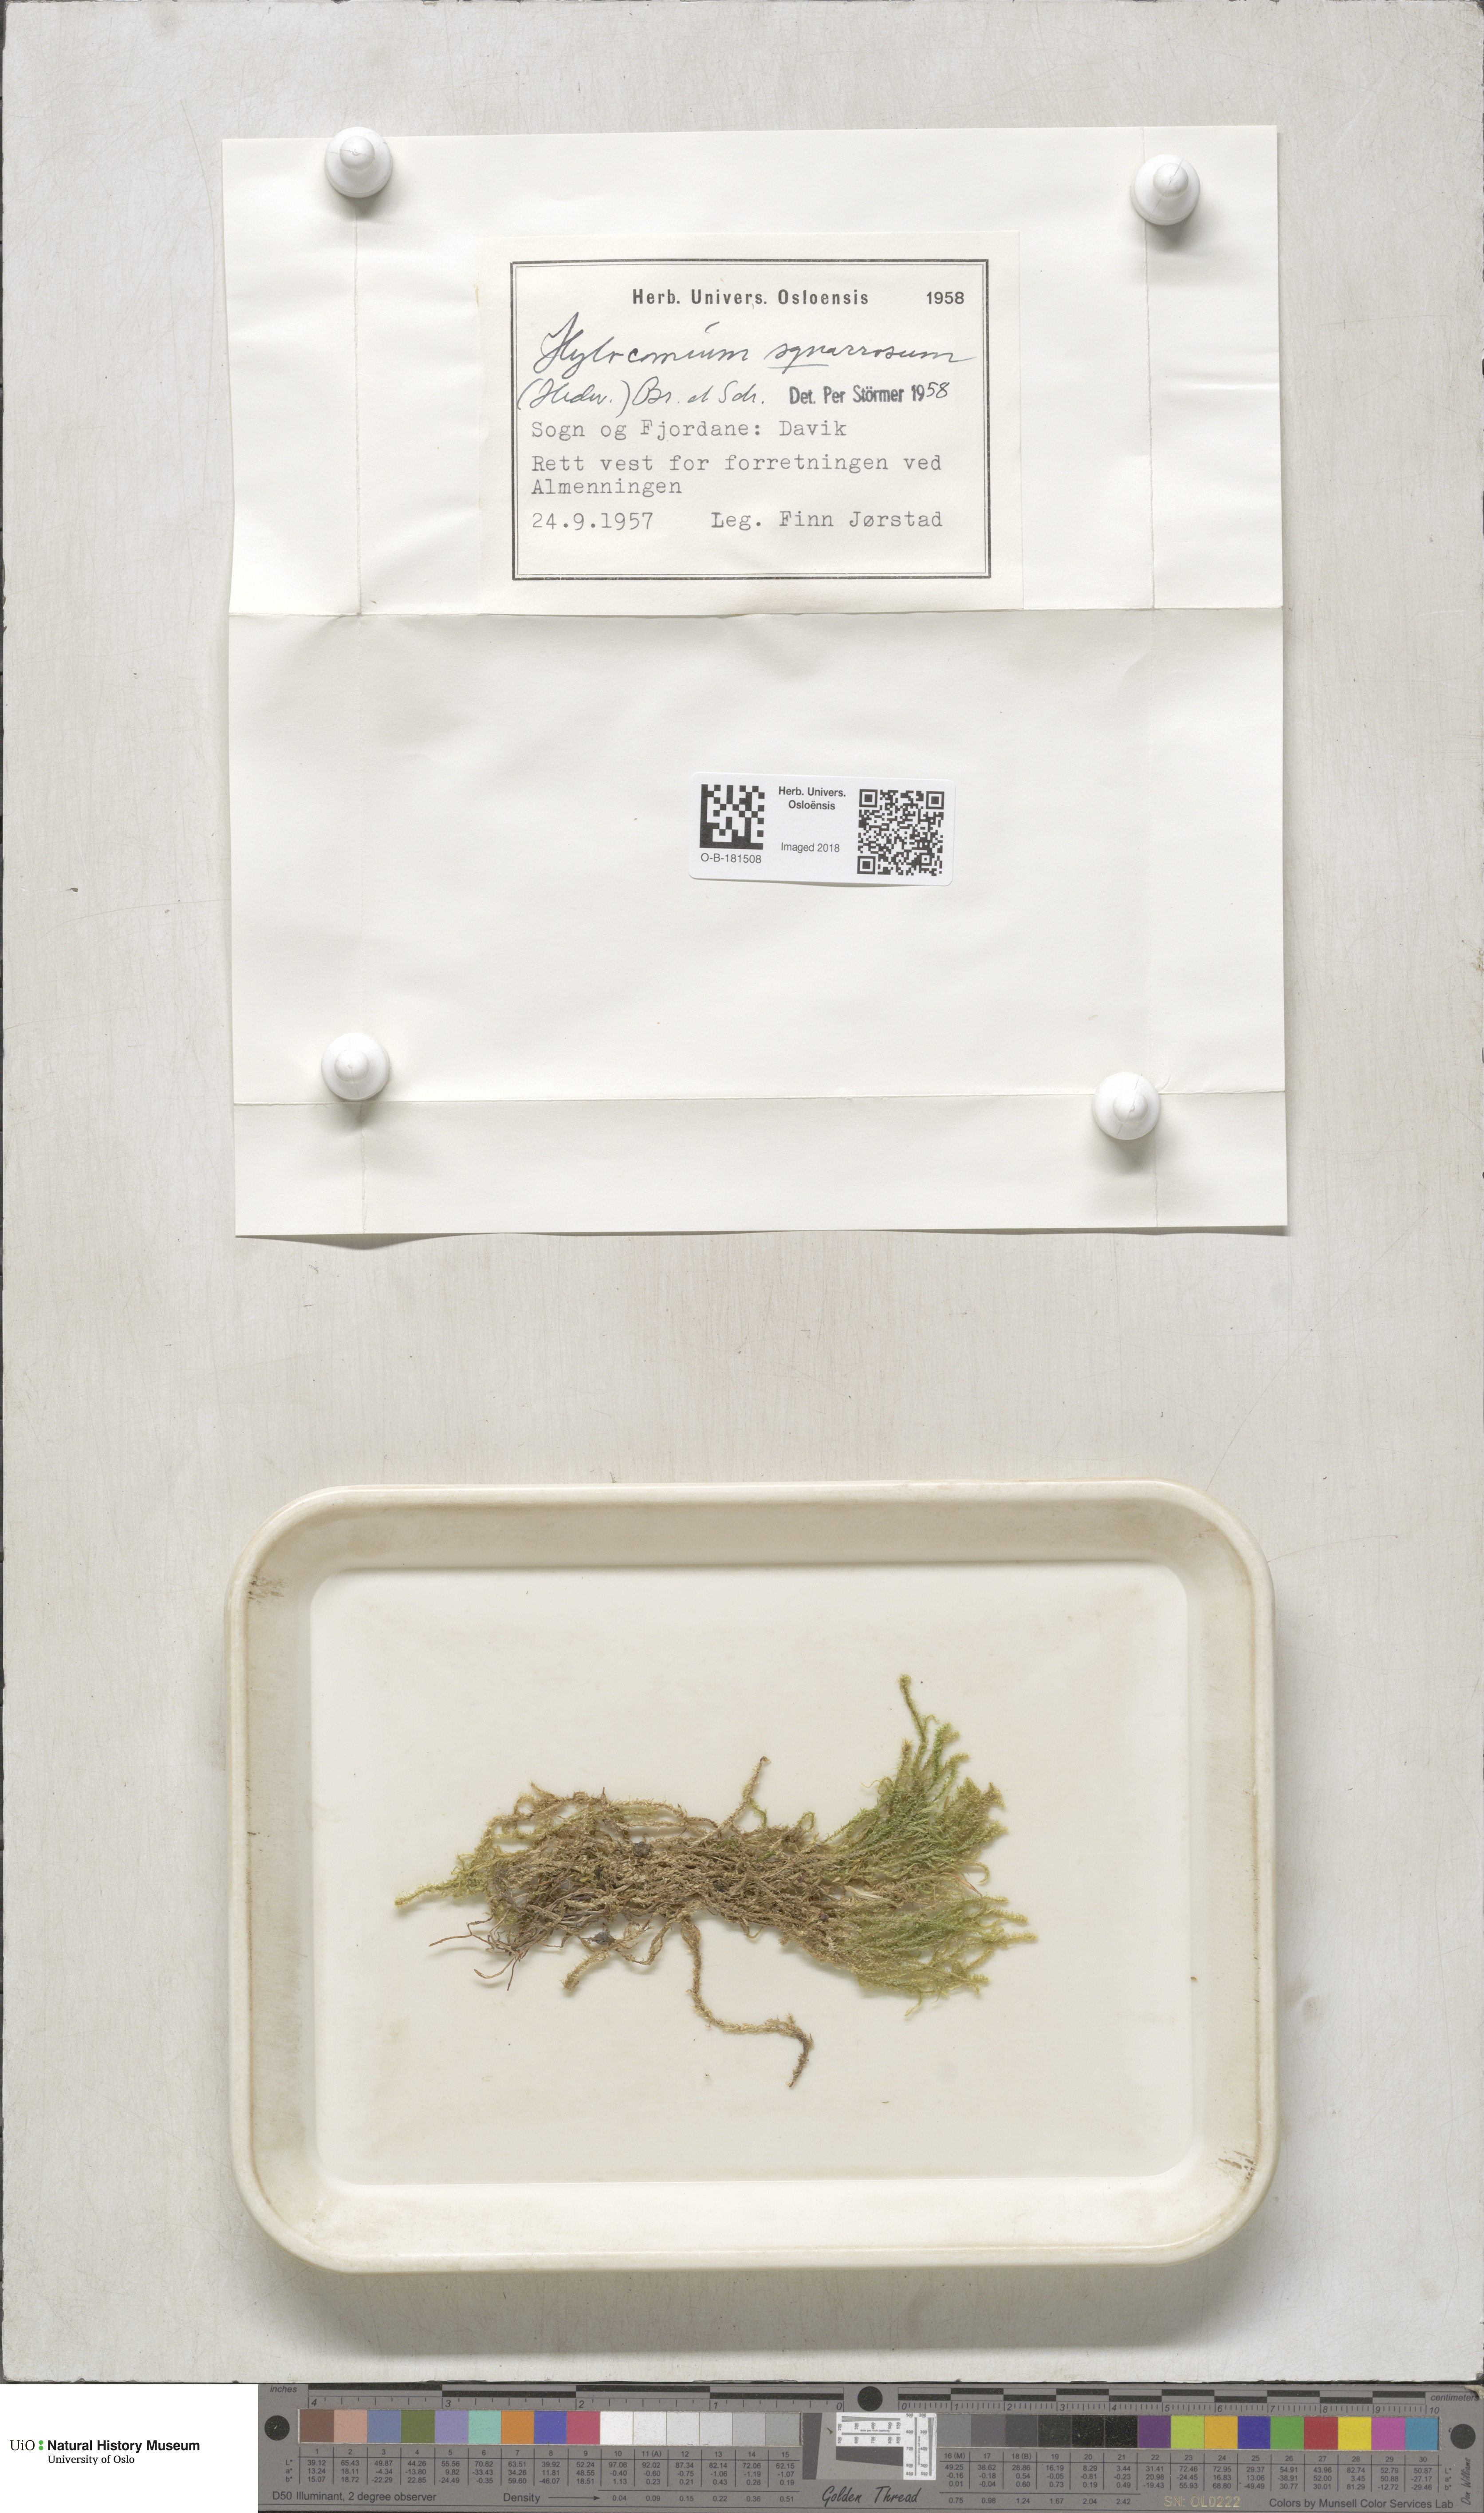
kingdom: Plantae
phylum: Bryophyta
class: Bryopsida
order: Hypnales
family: Hylocomiaceae
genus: Rhytidiadelphus
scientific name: Rhytidiadelphus squarrosus
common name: Springy turf-moss
